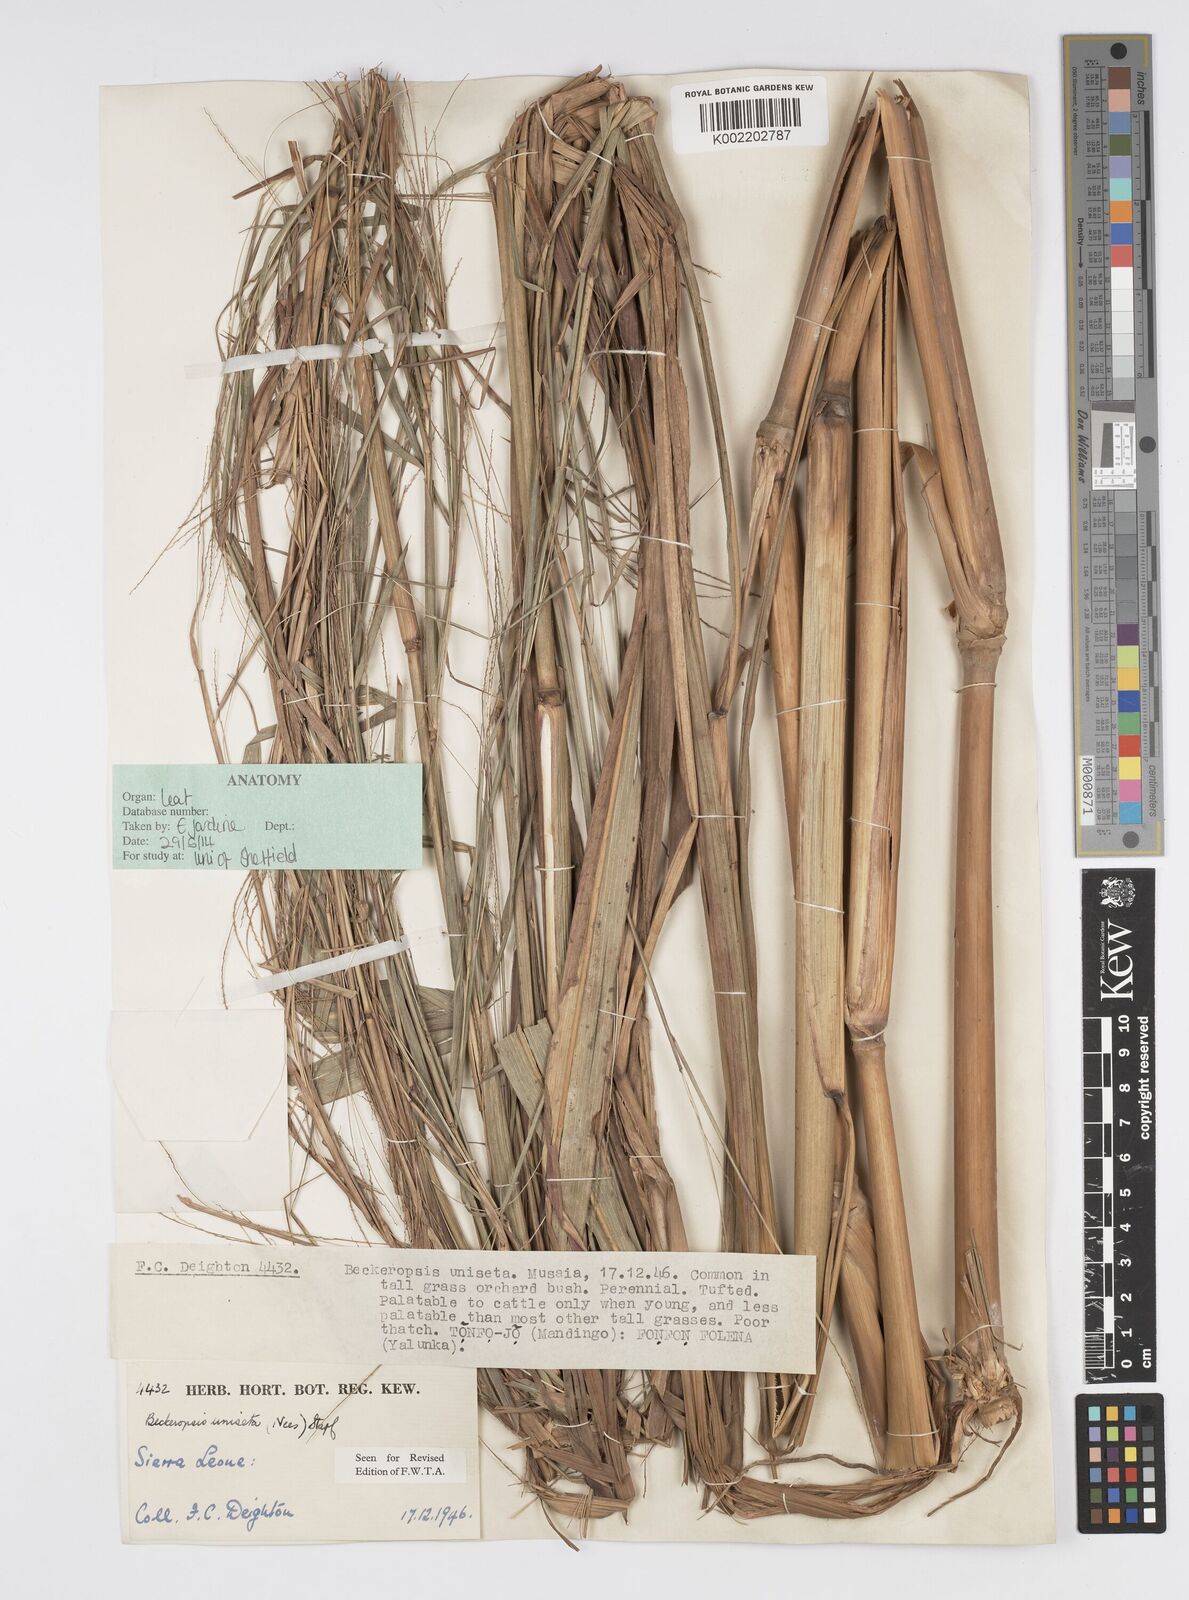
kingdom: Plantae
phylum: Tracheophyta
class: Liliopsida
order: Poales
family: Poaceae
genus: Cenchrus
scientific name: Cenchrus unisetus
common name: Natal grass
